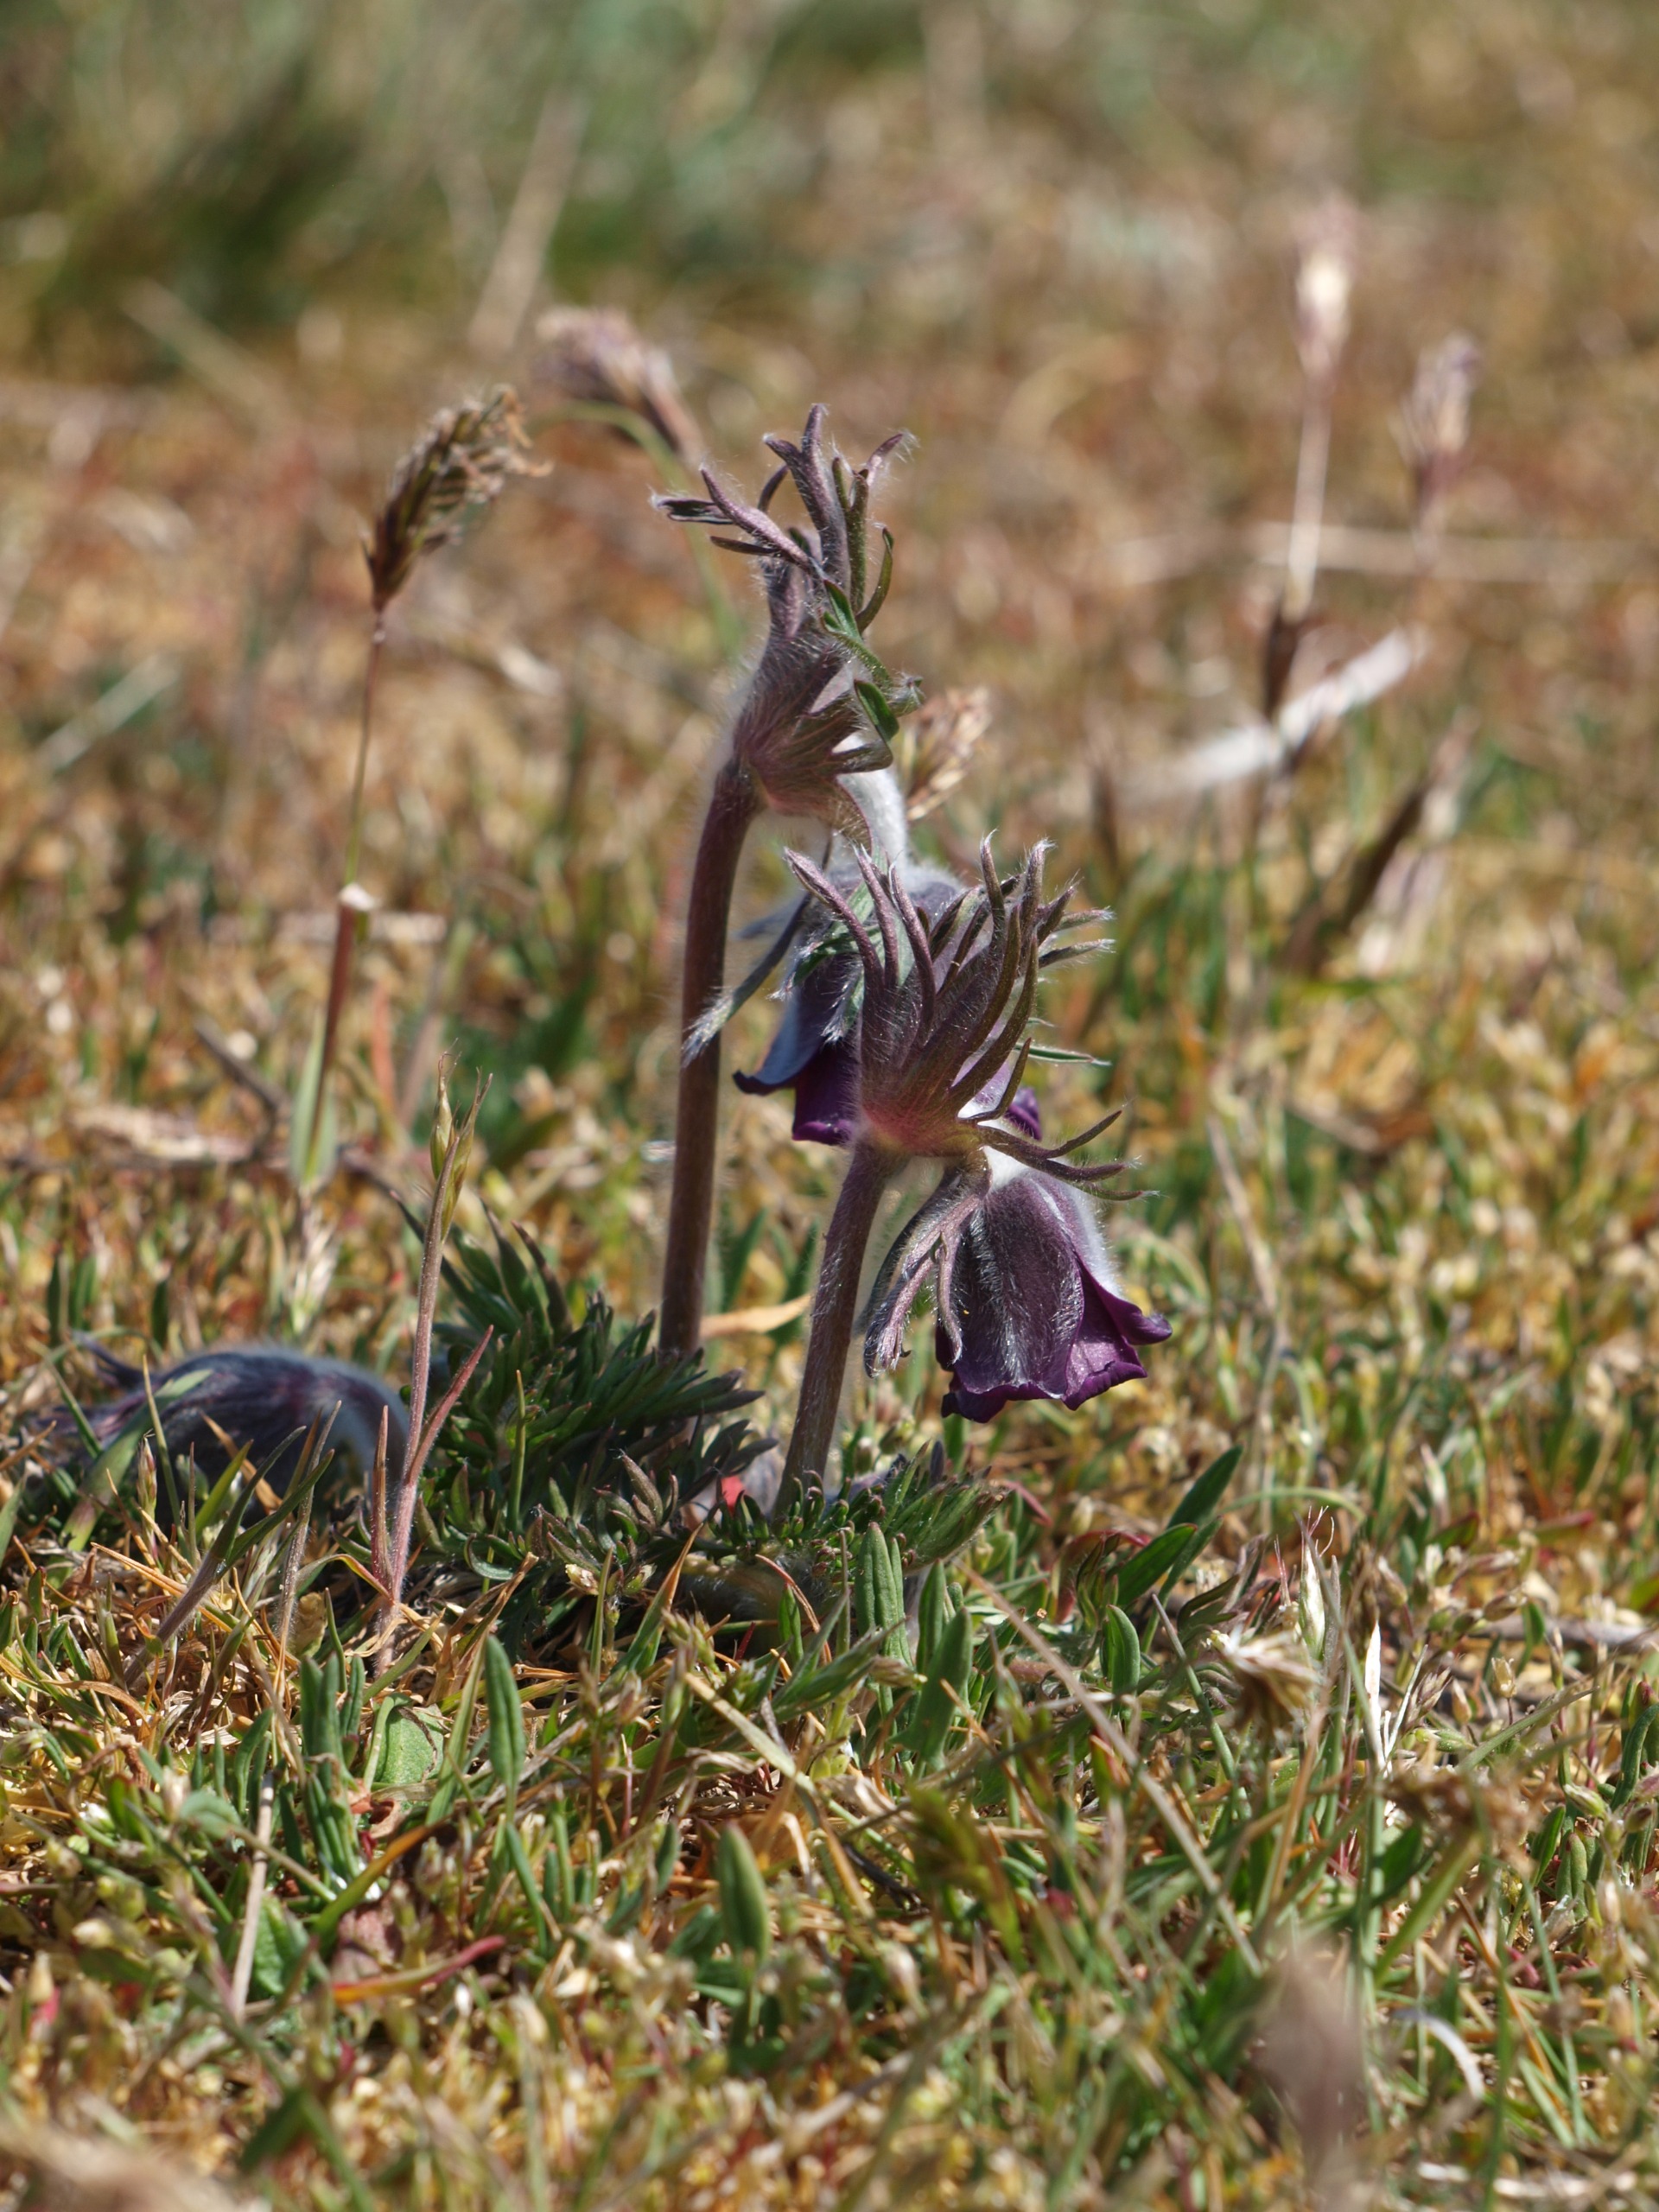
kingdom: Plantae
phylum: Tracheophyta
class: Magnoliopsida
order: Ranunculales
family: Ranunculaceae
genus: Pulsatilla
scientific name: Pulsatilla pratensis
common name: Nikkende kobjælde
